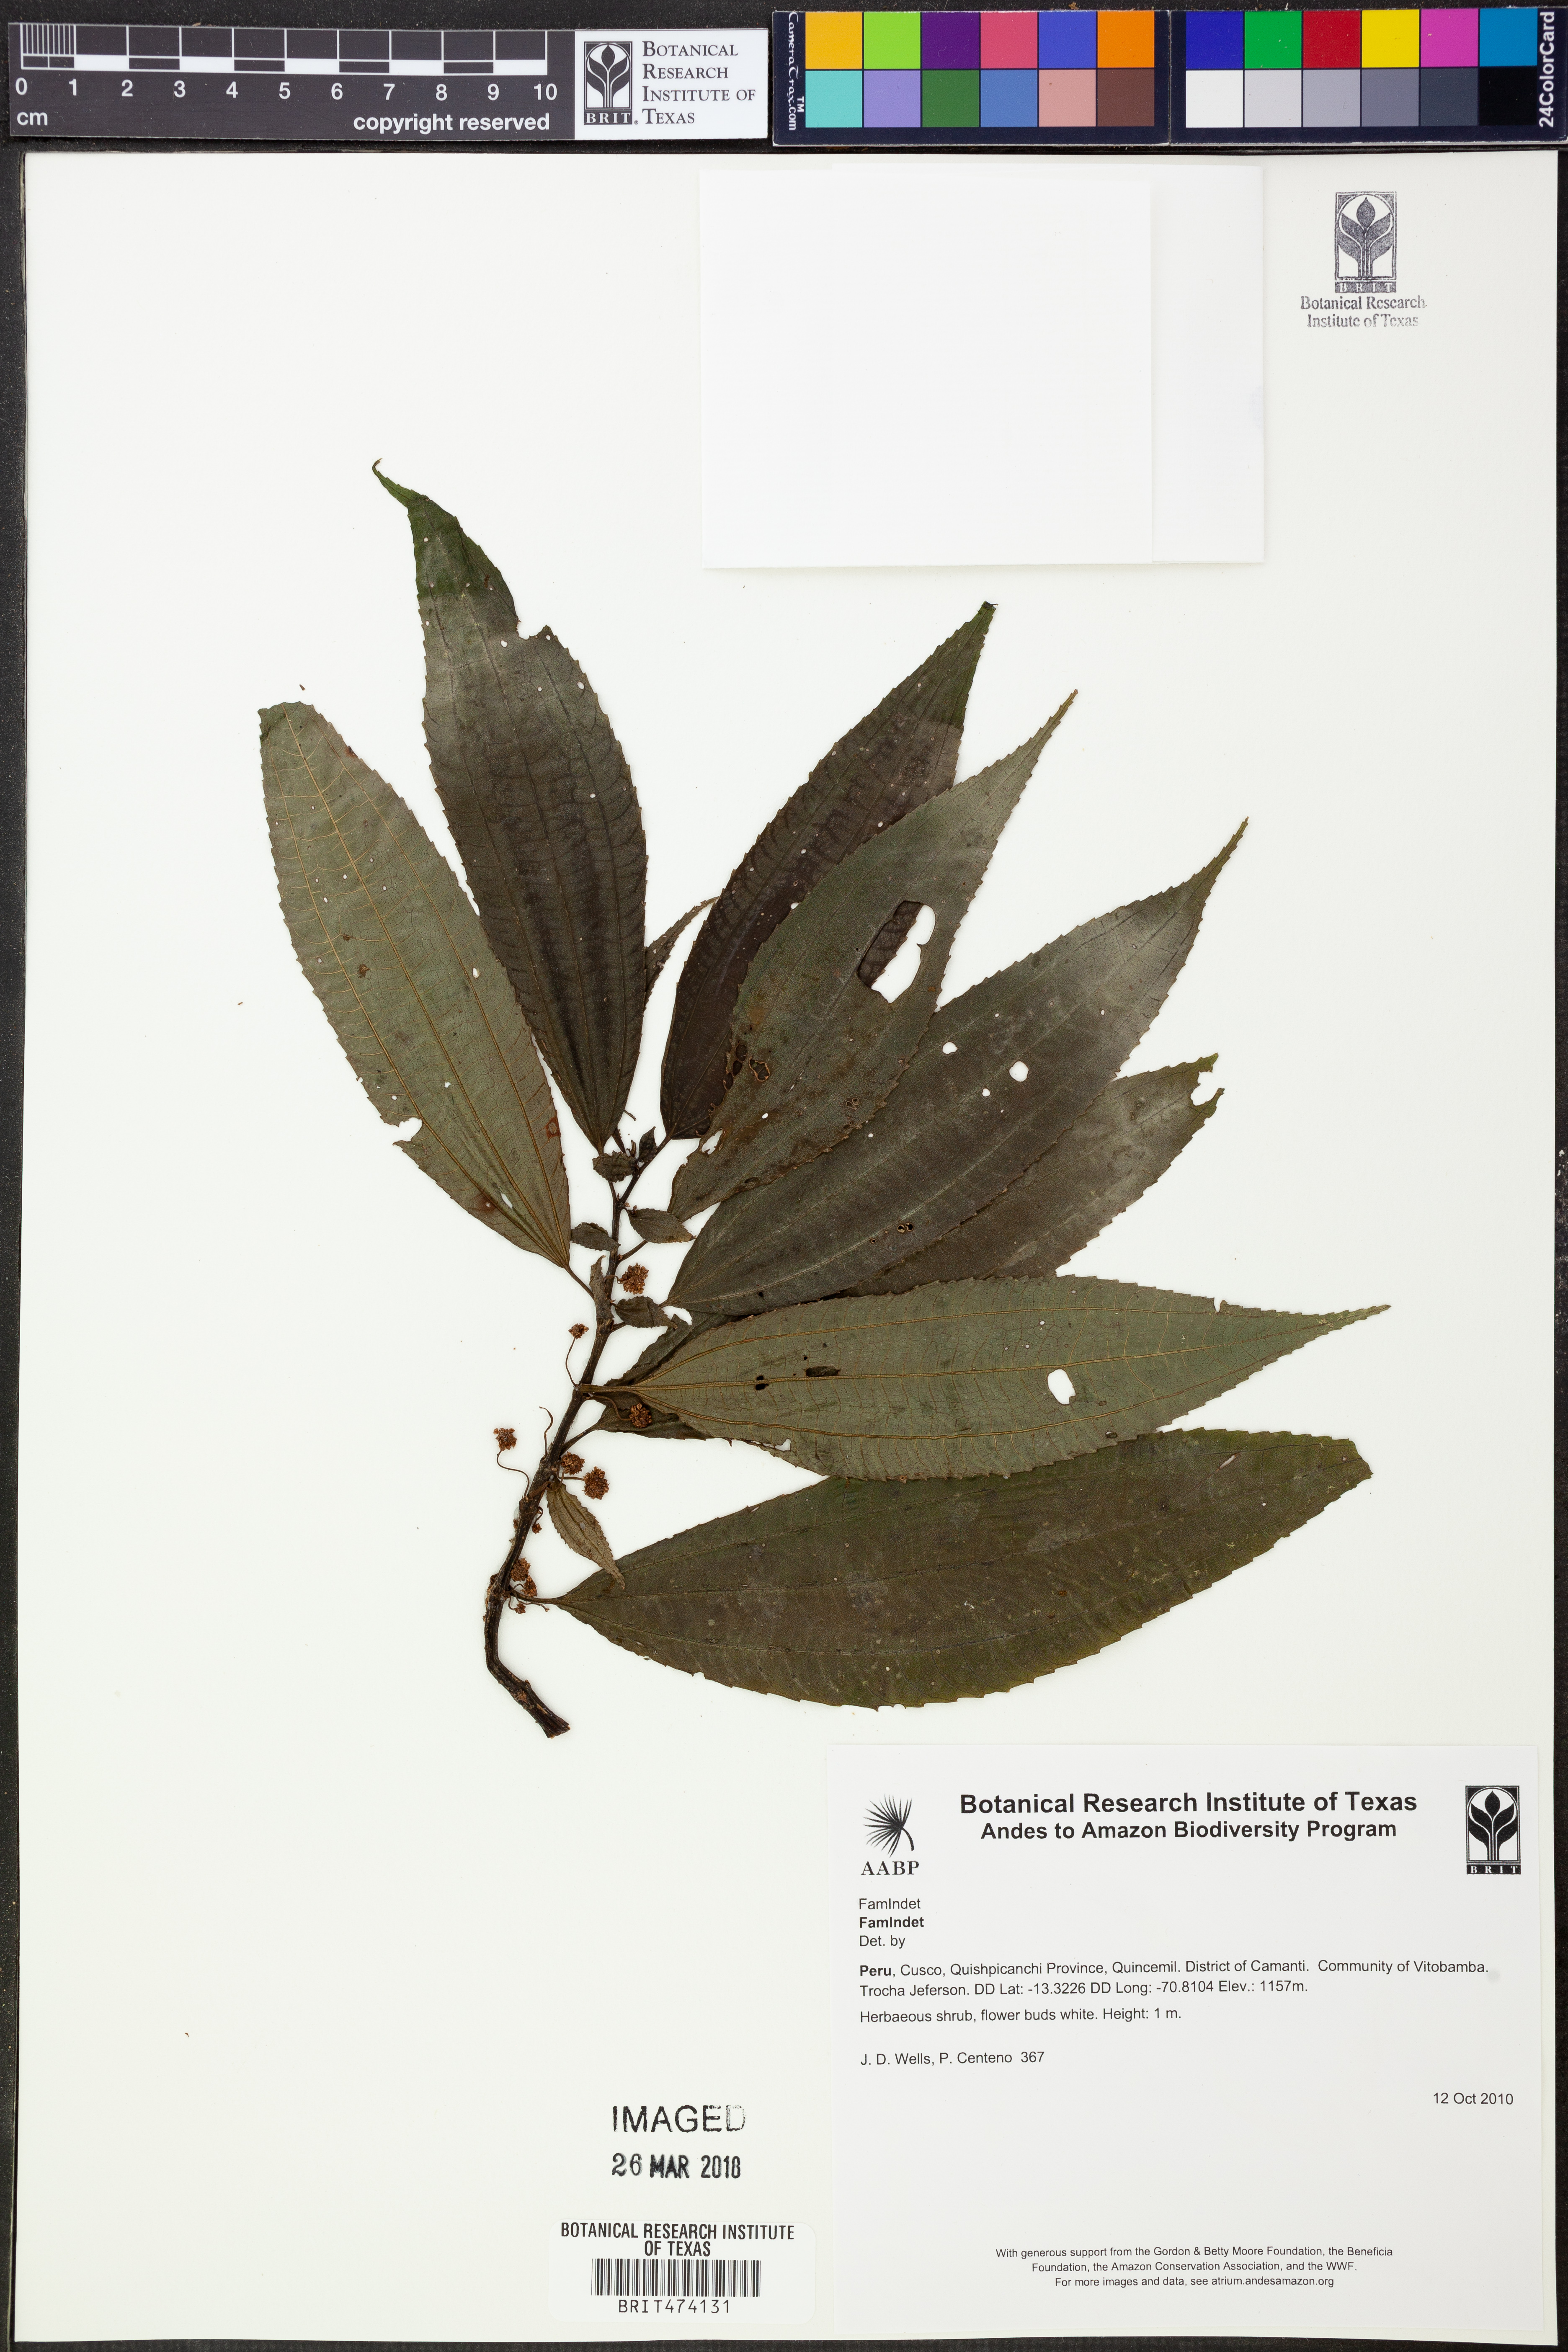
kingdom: Plantae
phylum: Tracheophyta
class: Magnoliopsida
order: Rosales
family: Urticaceae
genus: Pilea
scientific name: Pilea
